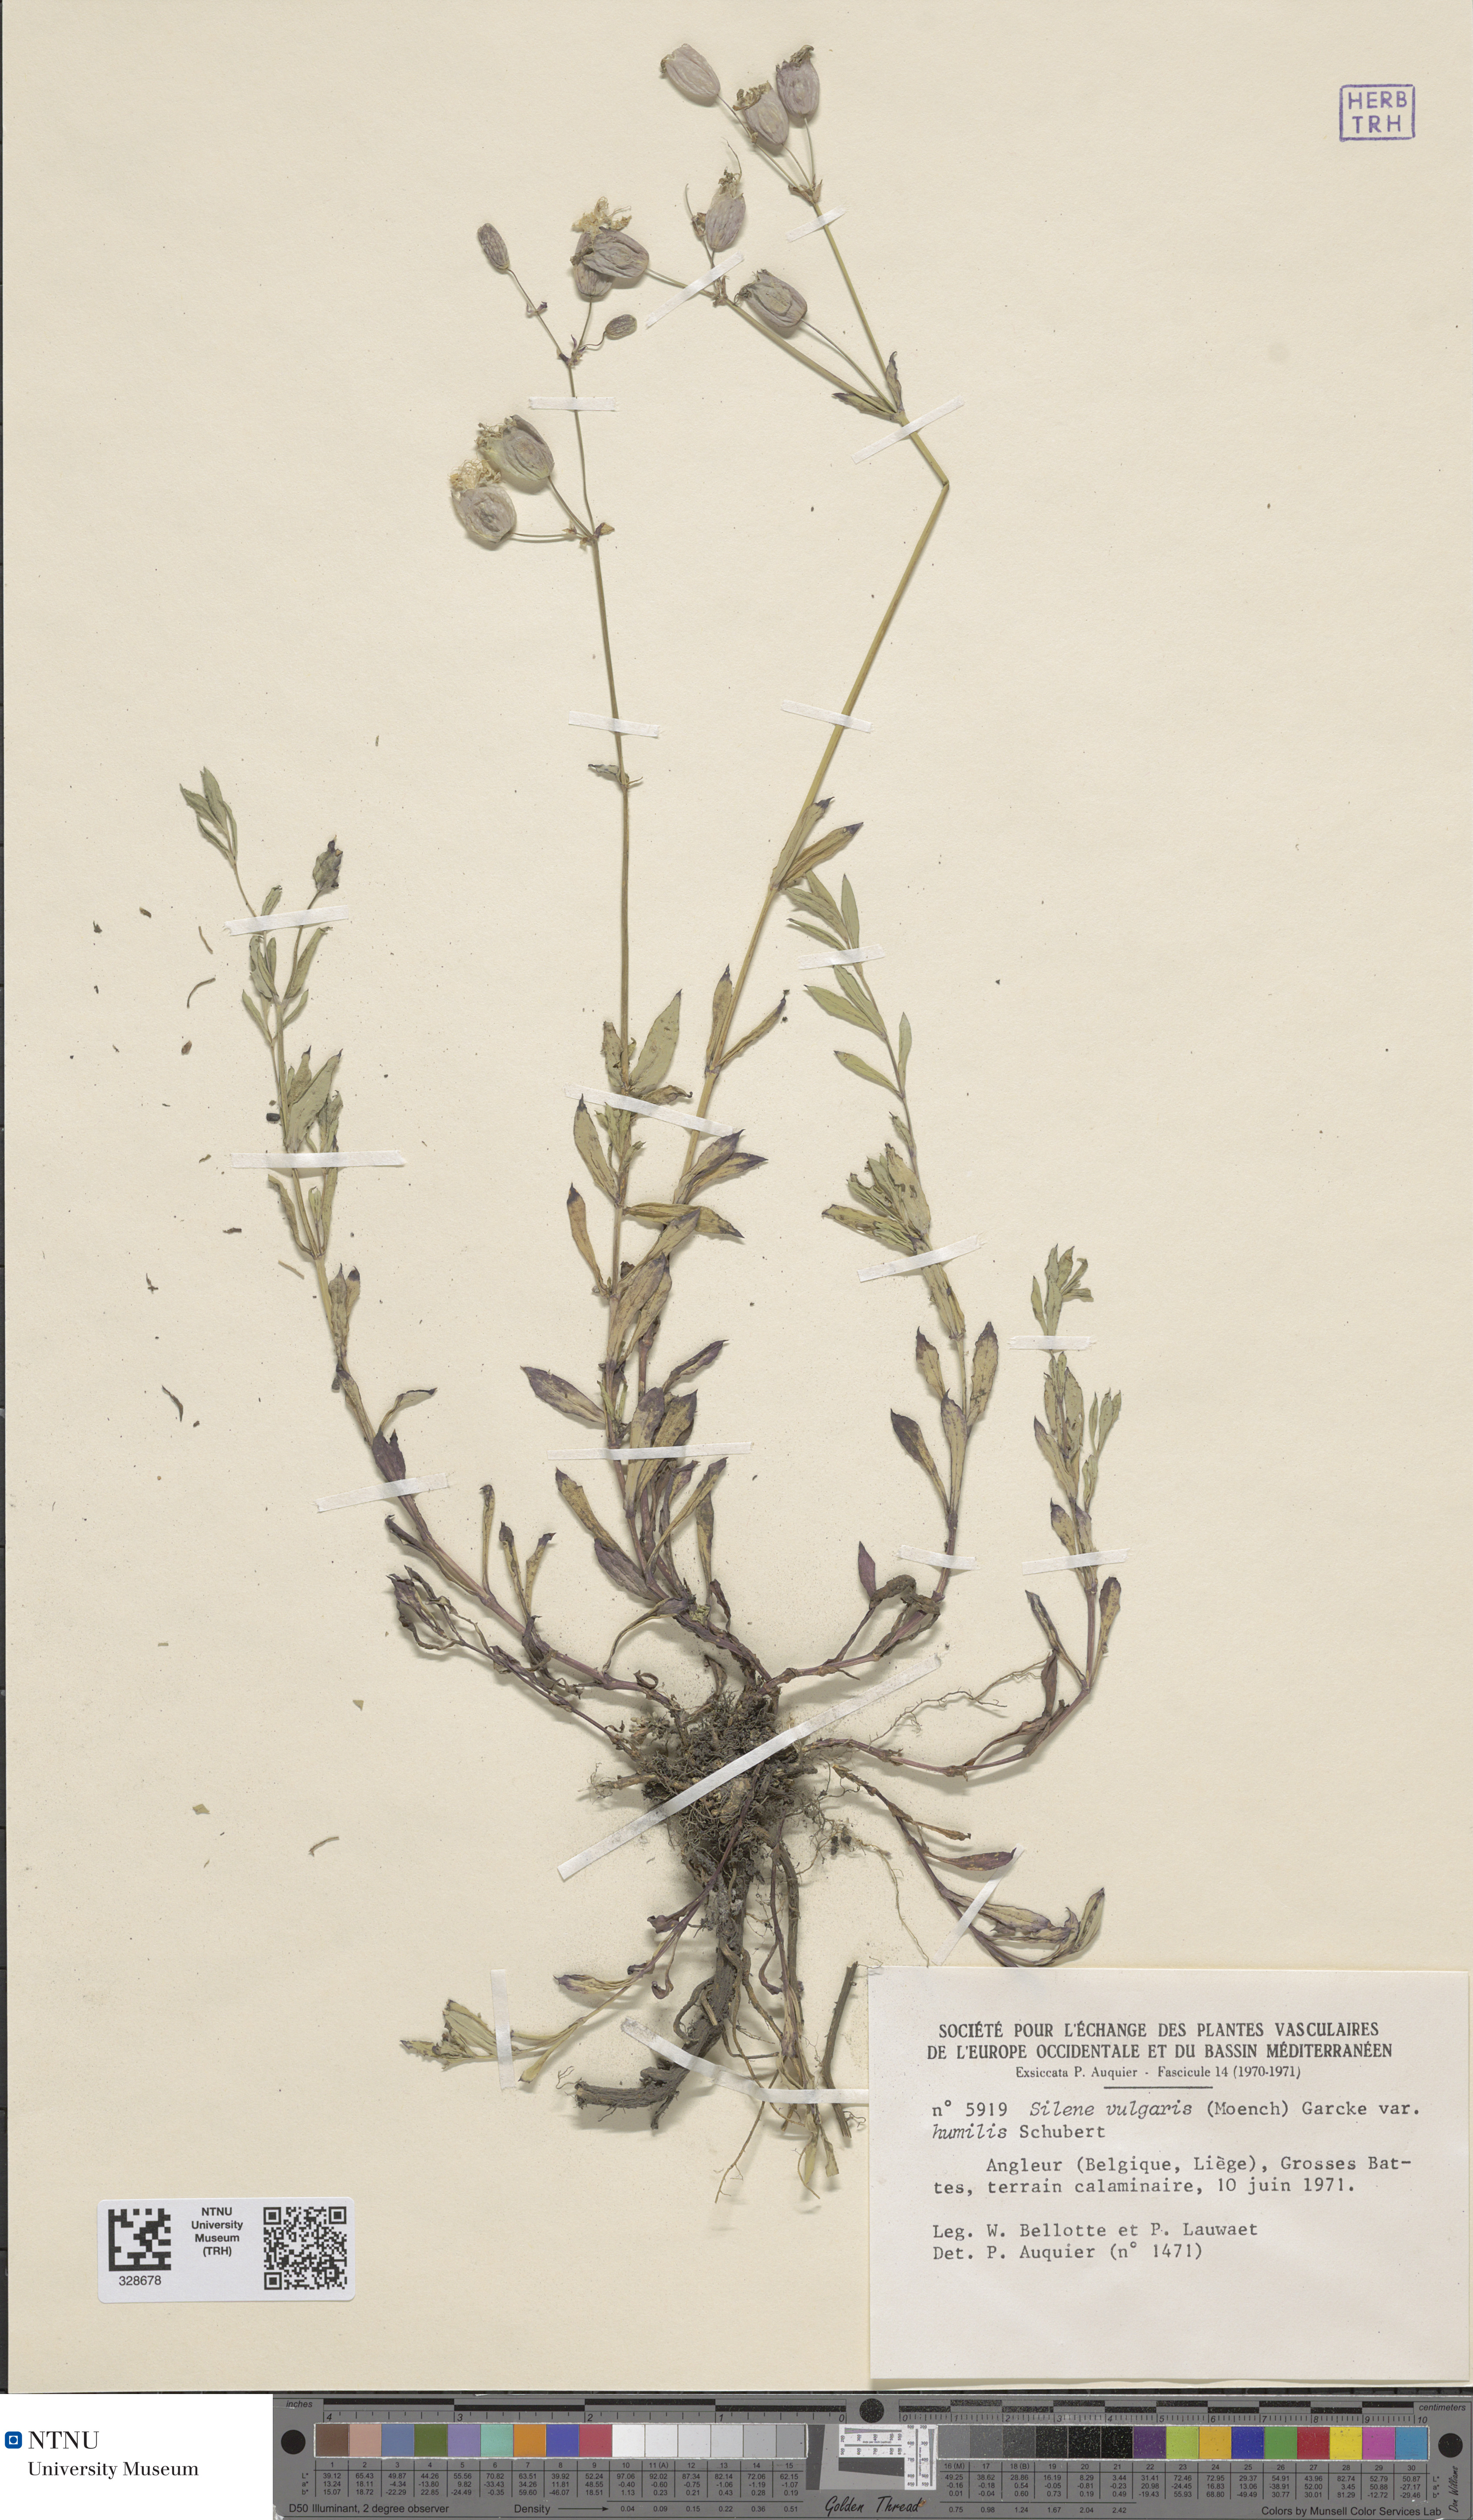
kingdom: Plantae
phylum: Tracheophyta
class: Magnoliopsida
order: Caryophyllales
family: Caryophyllaceae
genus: Silene
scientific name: Silene vulgaris
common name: Bladder campion
